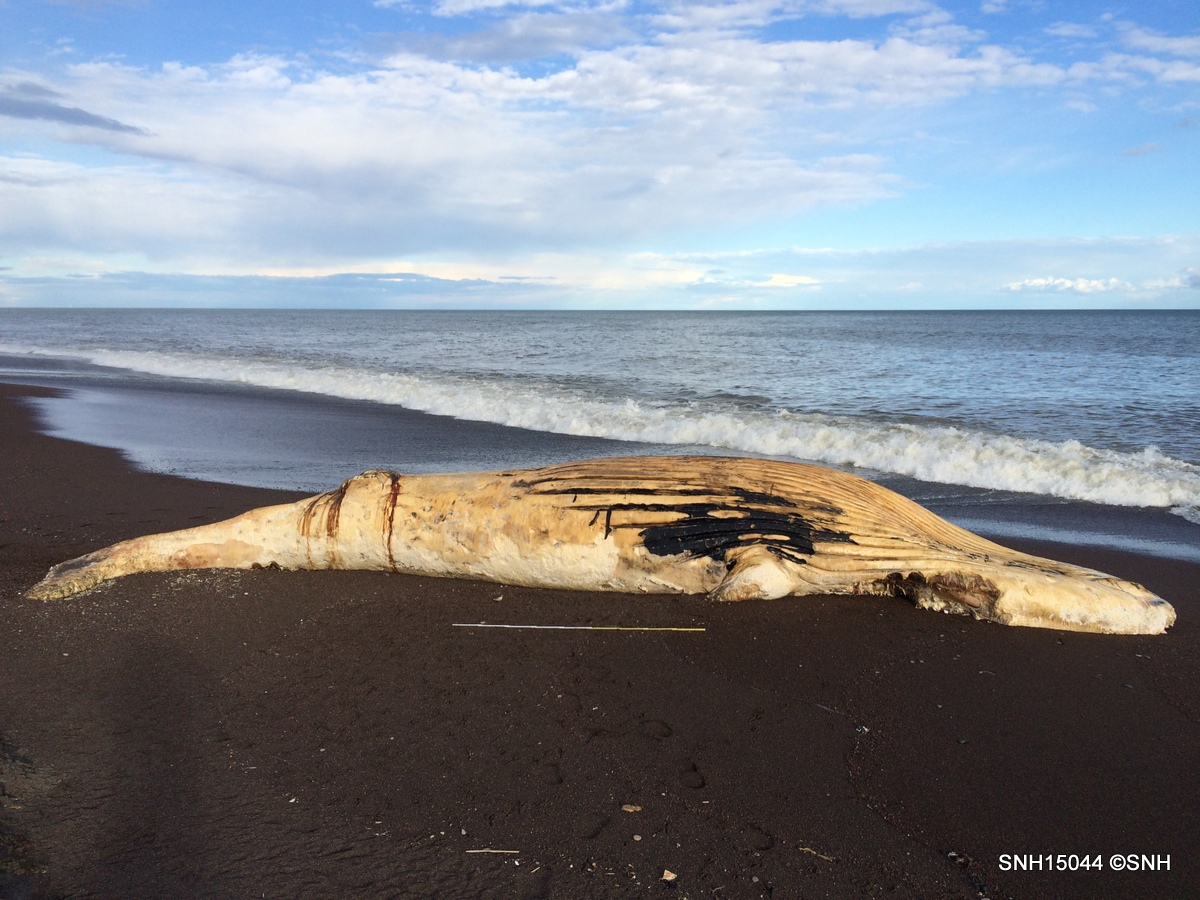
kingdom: Animalia
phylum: Chordata
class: Mammalia
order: Cetacea
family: Balaenopteridae
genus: Megaptera
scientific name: Megaptera novaeangliae
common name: Humpback whale
